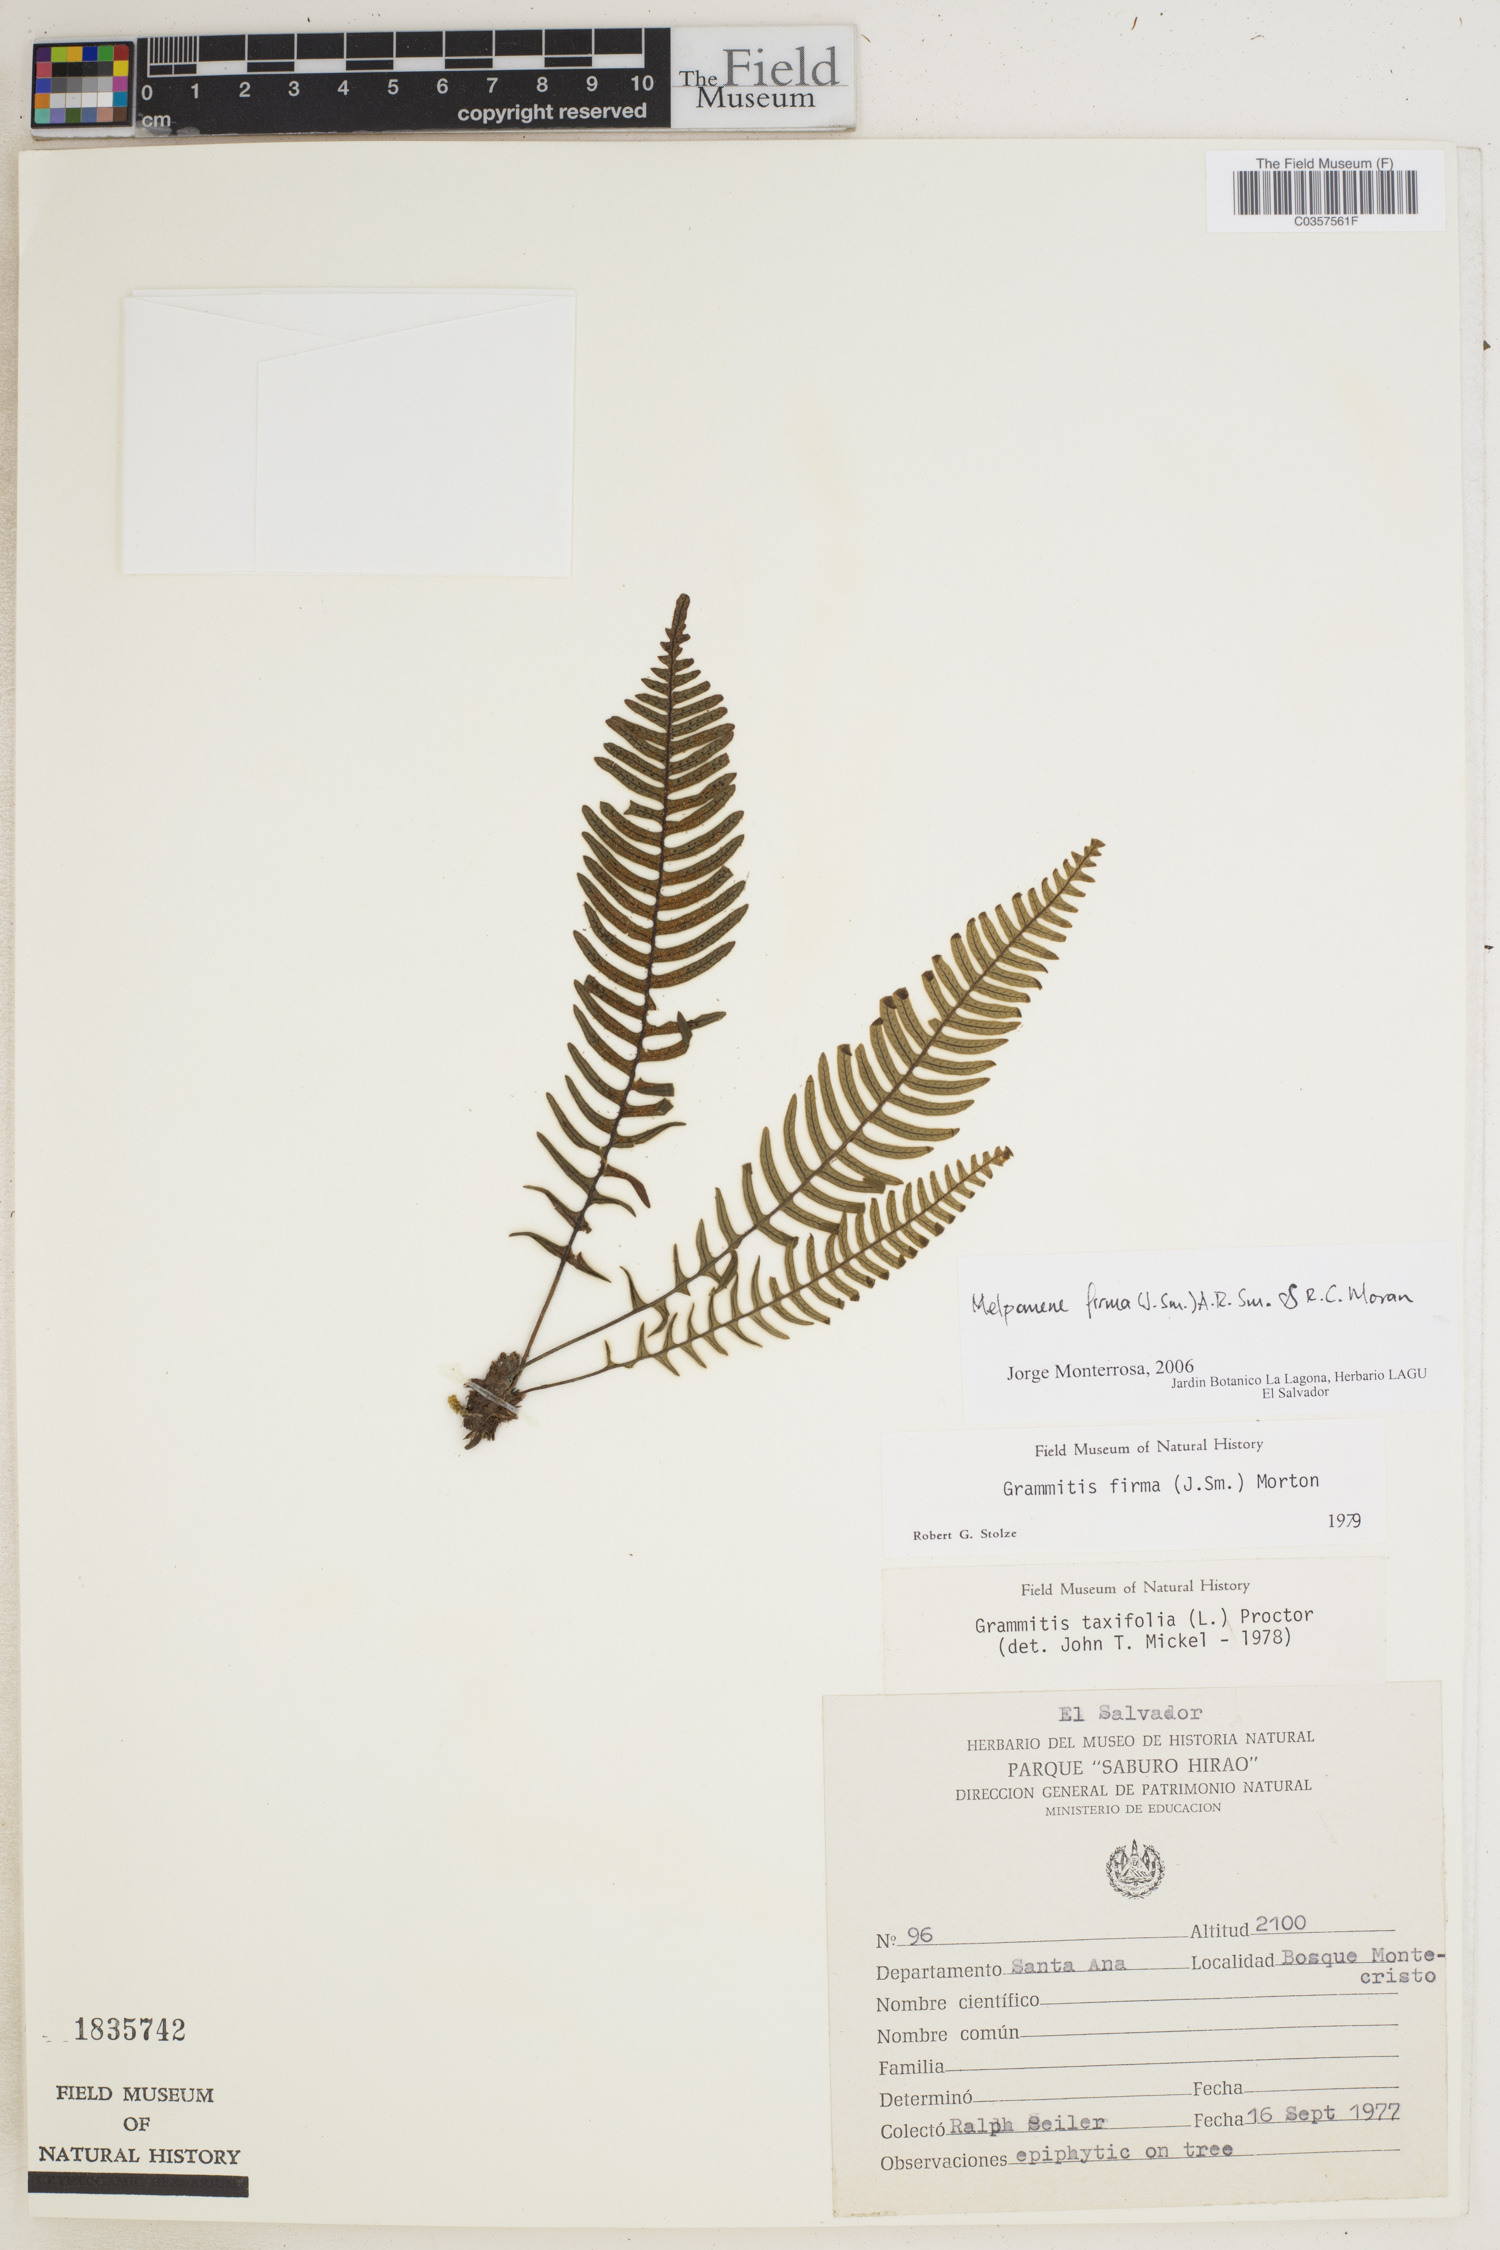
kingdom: Plantae
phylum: Tracheophyta
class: Polypodiopsida
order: Polypodiales
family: Polypodiaceae
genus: Melpomene
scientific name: Melpomene firma
